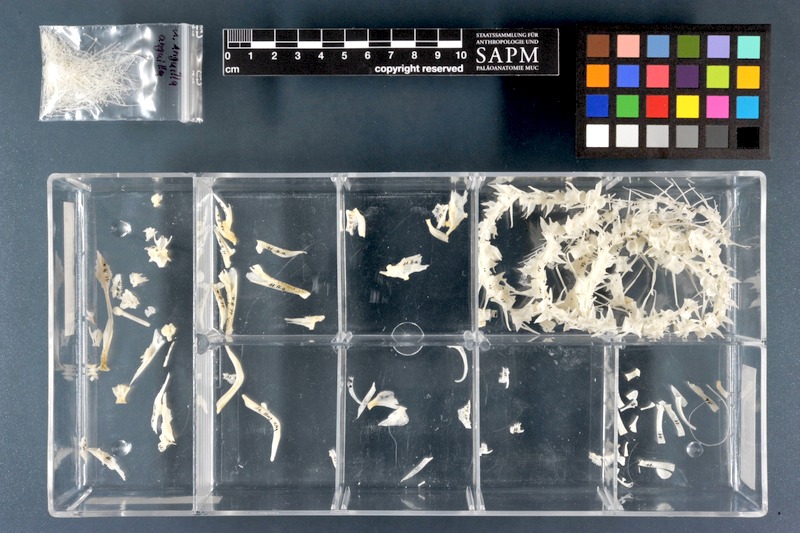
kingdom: Animalia
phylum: Chordata
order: Anguilliformes
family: Anguillidae
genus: Anguilla
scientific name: Anguilla anguilla
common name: European eel
